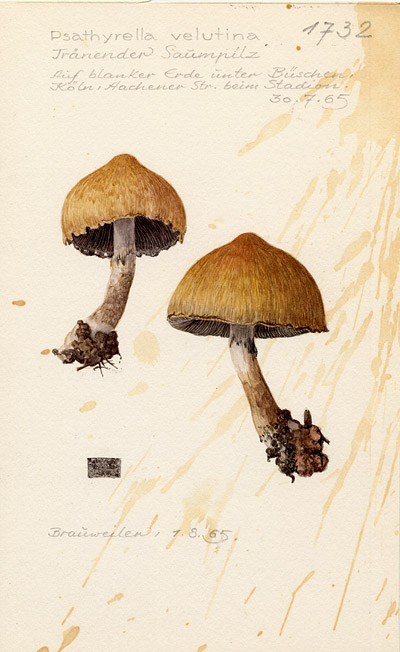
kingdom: Fungi
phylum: Basidiomycota
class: Agaricomycetes
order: Agaricales
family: Psathyrellaceae
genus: Lacrymaria
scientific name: Lacrymaria lacrymabunda
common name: Weeping widow
